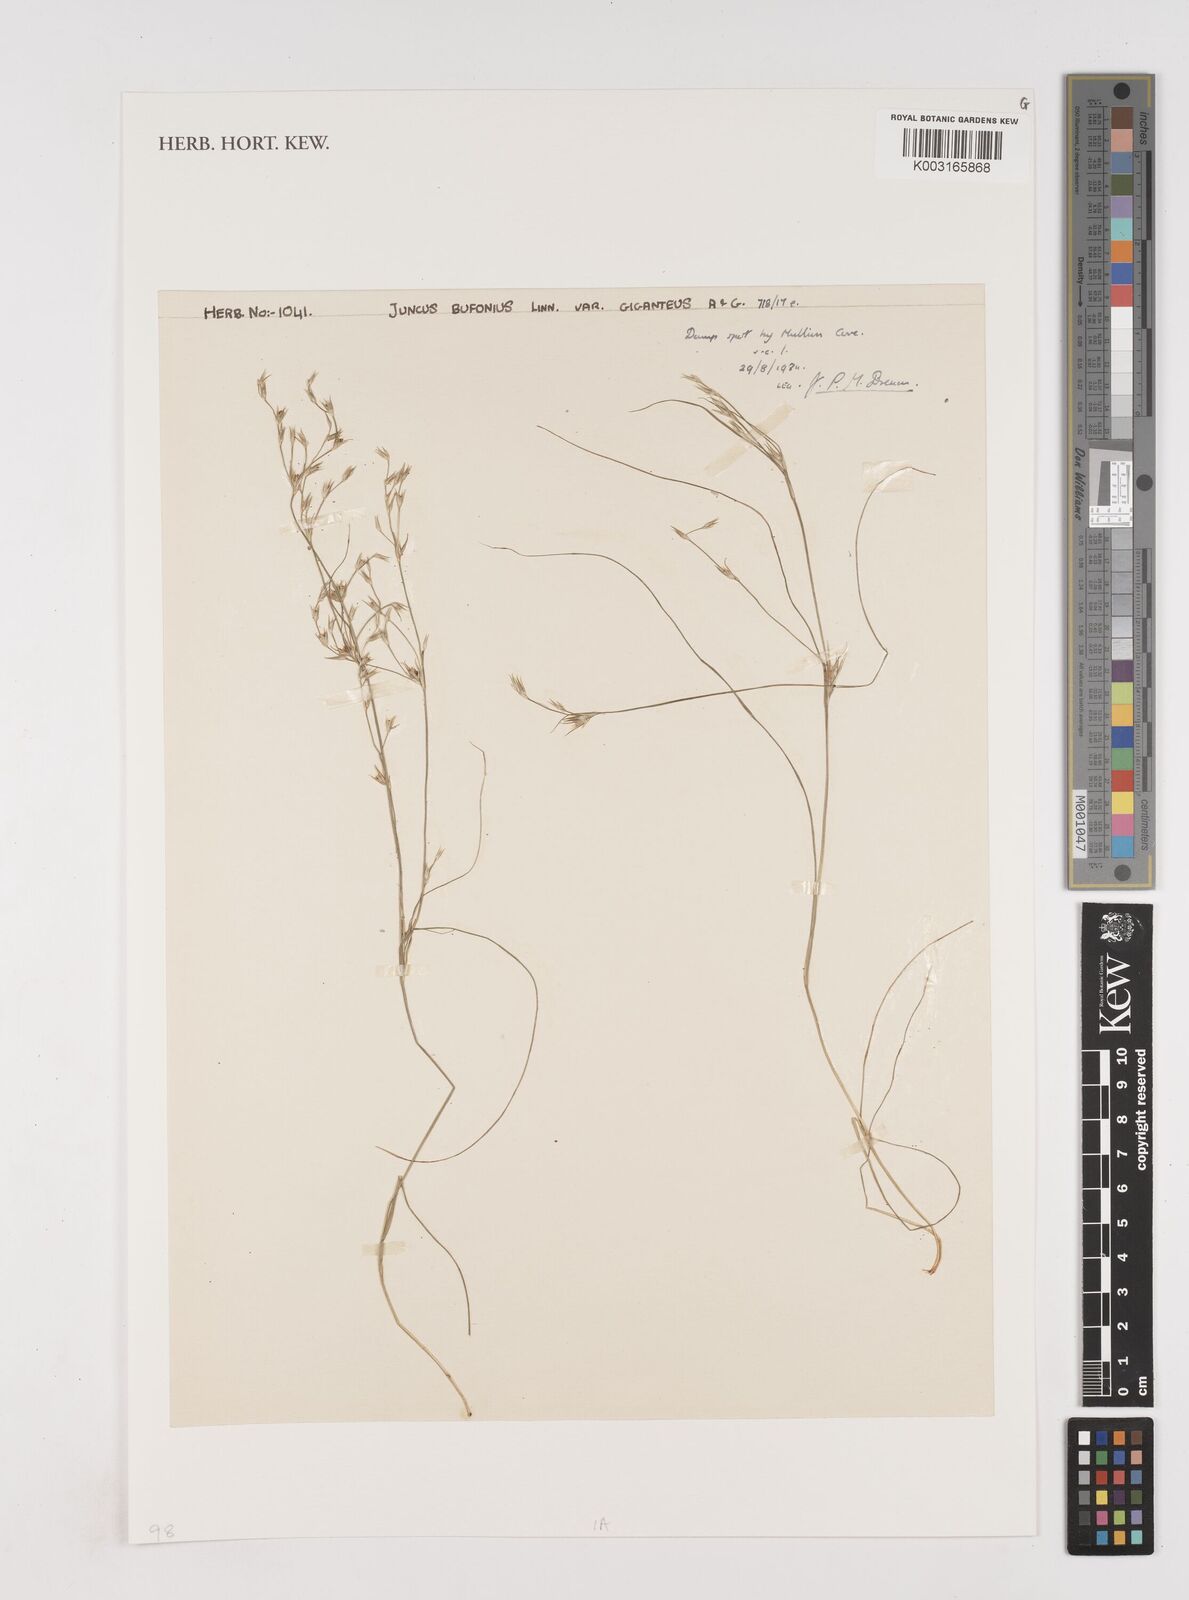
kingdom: Plantae
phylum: Tracheophyta
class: Liliopsida
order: Poales
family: Juncaceae
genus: Juncus
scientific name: Juncus bufonius
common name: Toad rush
